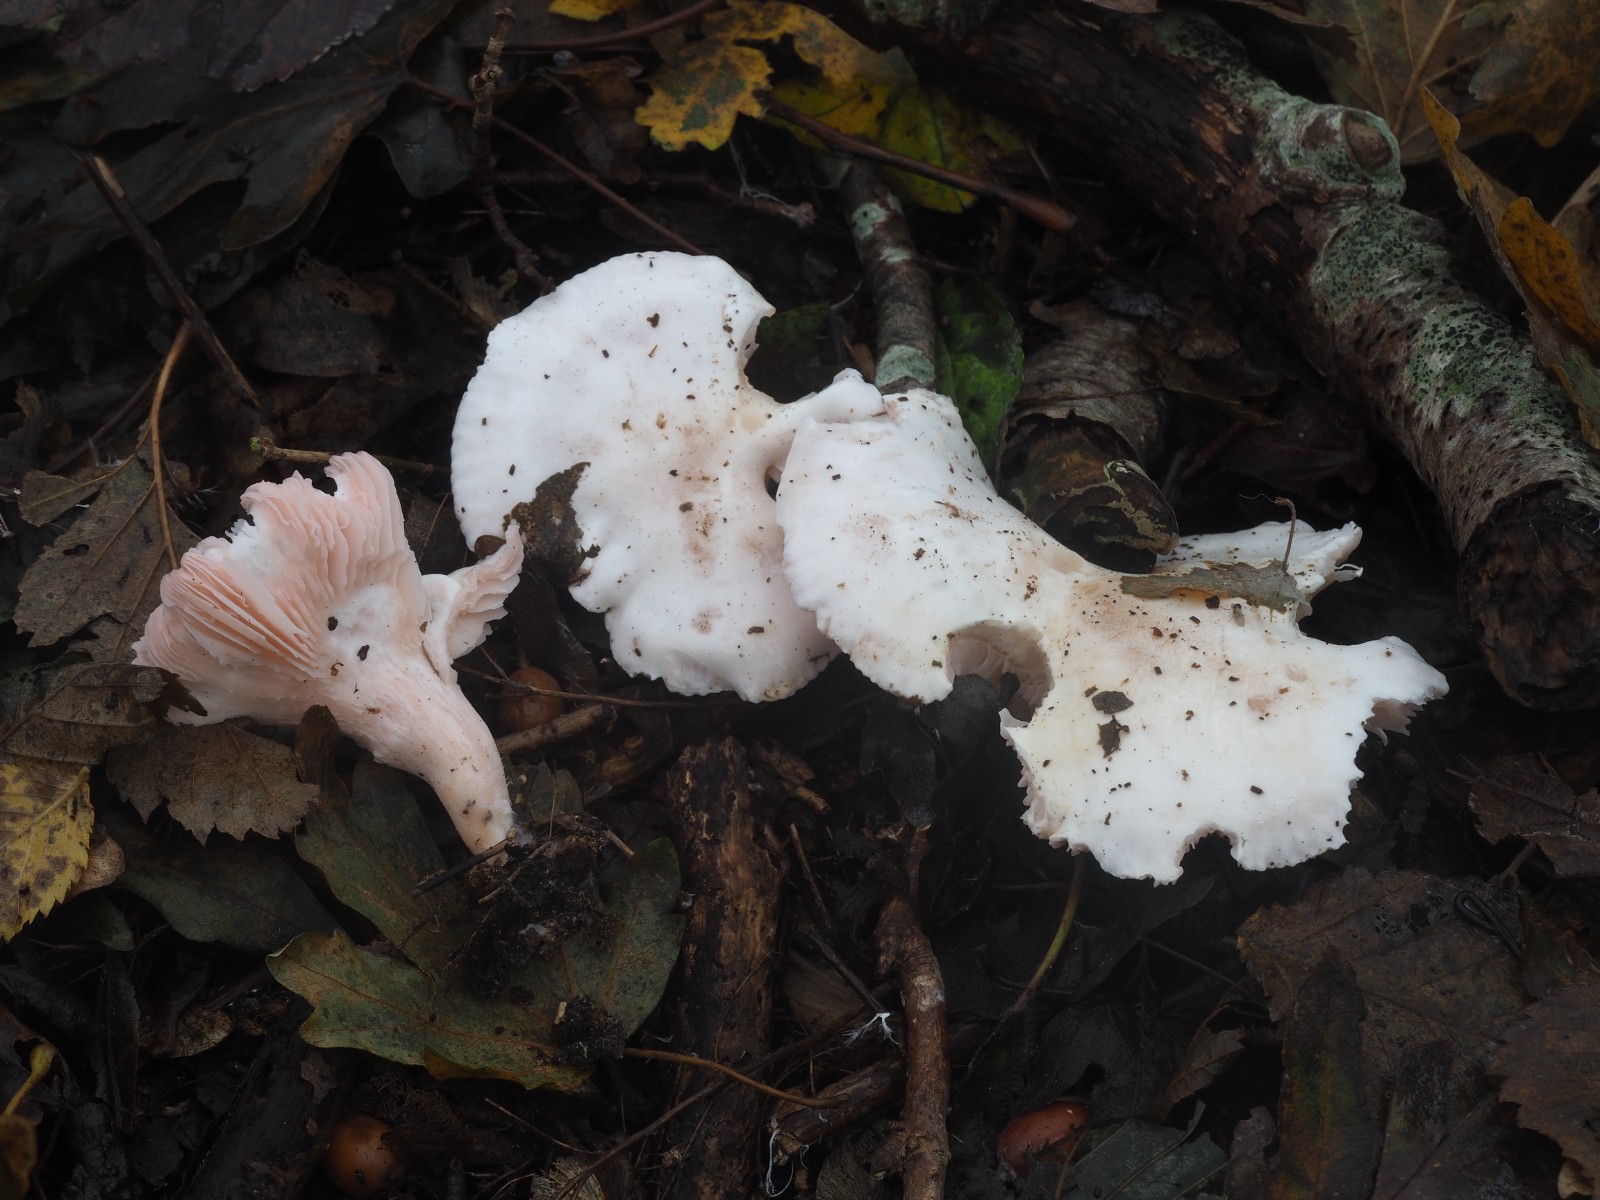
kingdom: Fungi
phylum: Basidiomycota
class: Agaricomycetes
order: Agaricales
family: Tricholomataceae
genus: Pseudoclitopilus
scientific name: Pseudoclitopilus rhodoleucus
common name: rosabladet tragtridderhat
